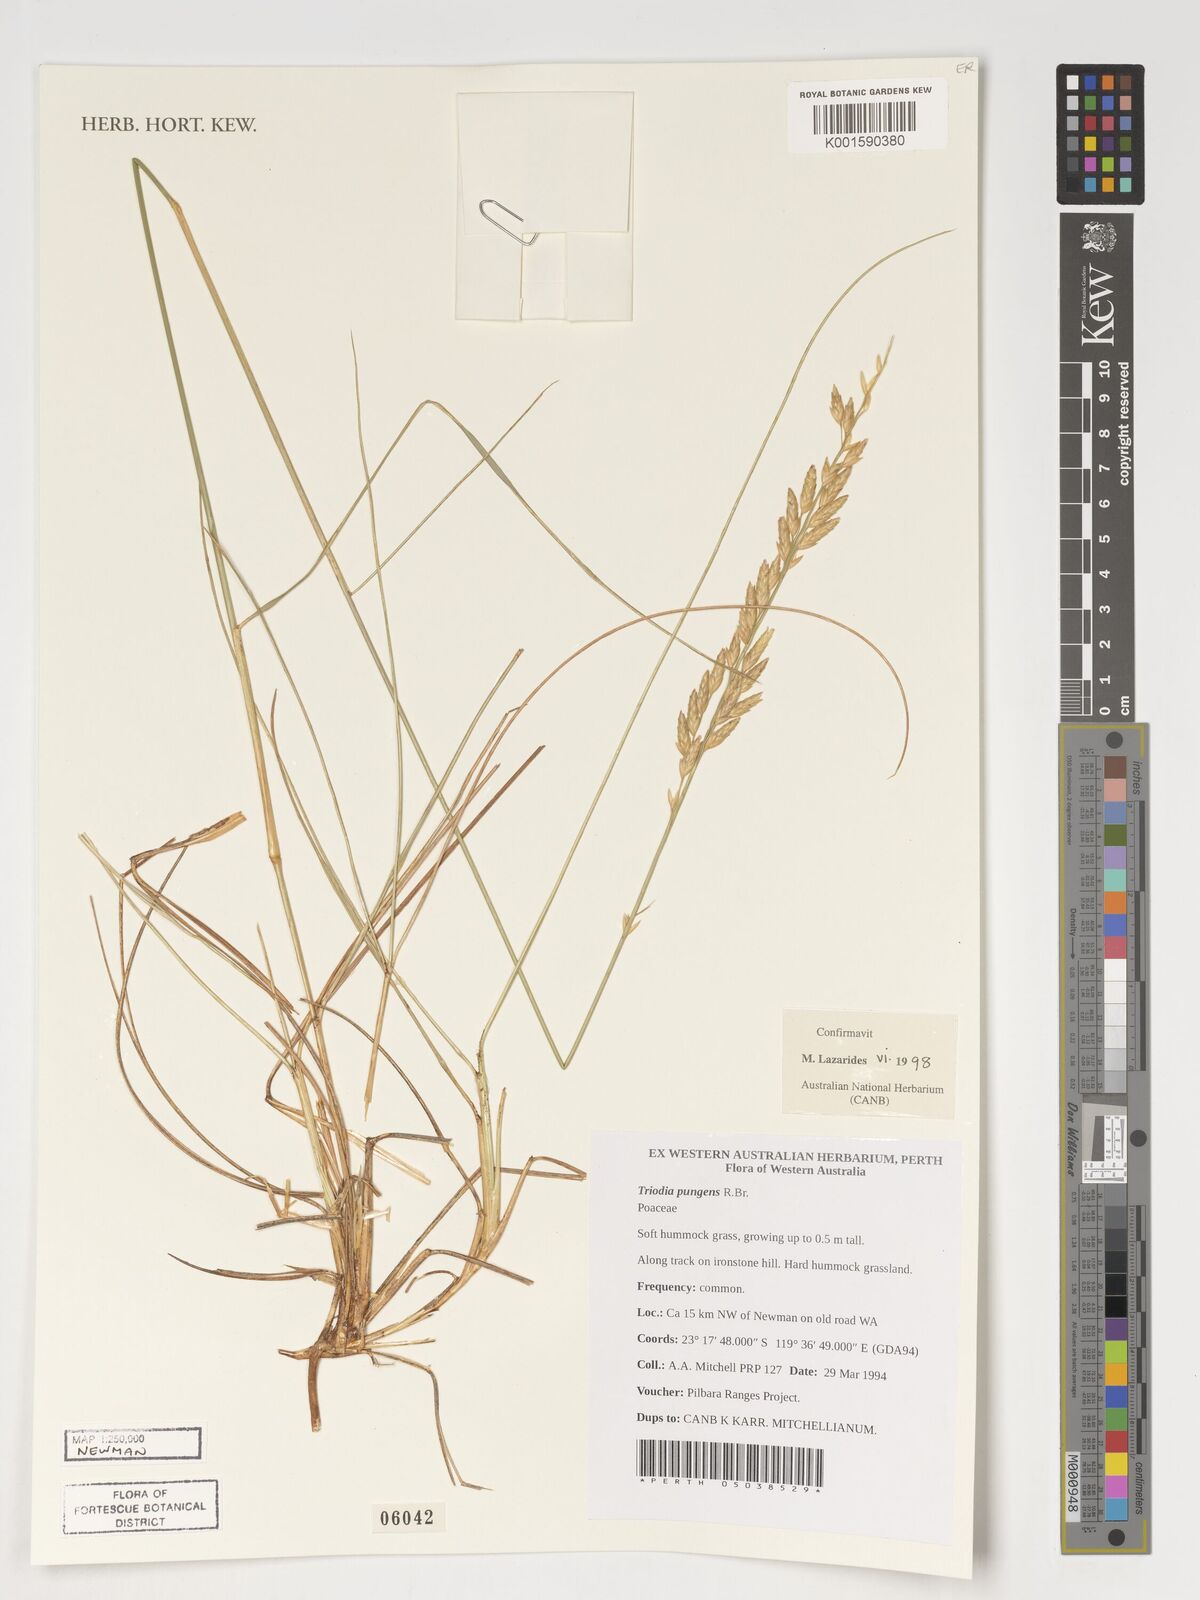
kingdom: Plantae
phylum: Tracheophyta
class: Liliopsida
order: Poales
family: Poaceae
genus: Triodia
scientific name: Triodia pungens
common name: Soft spinifex
